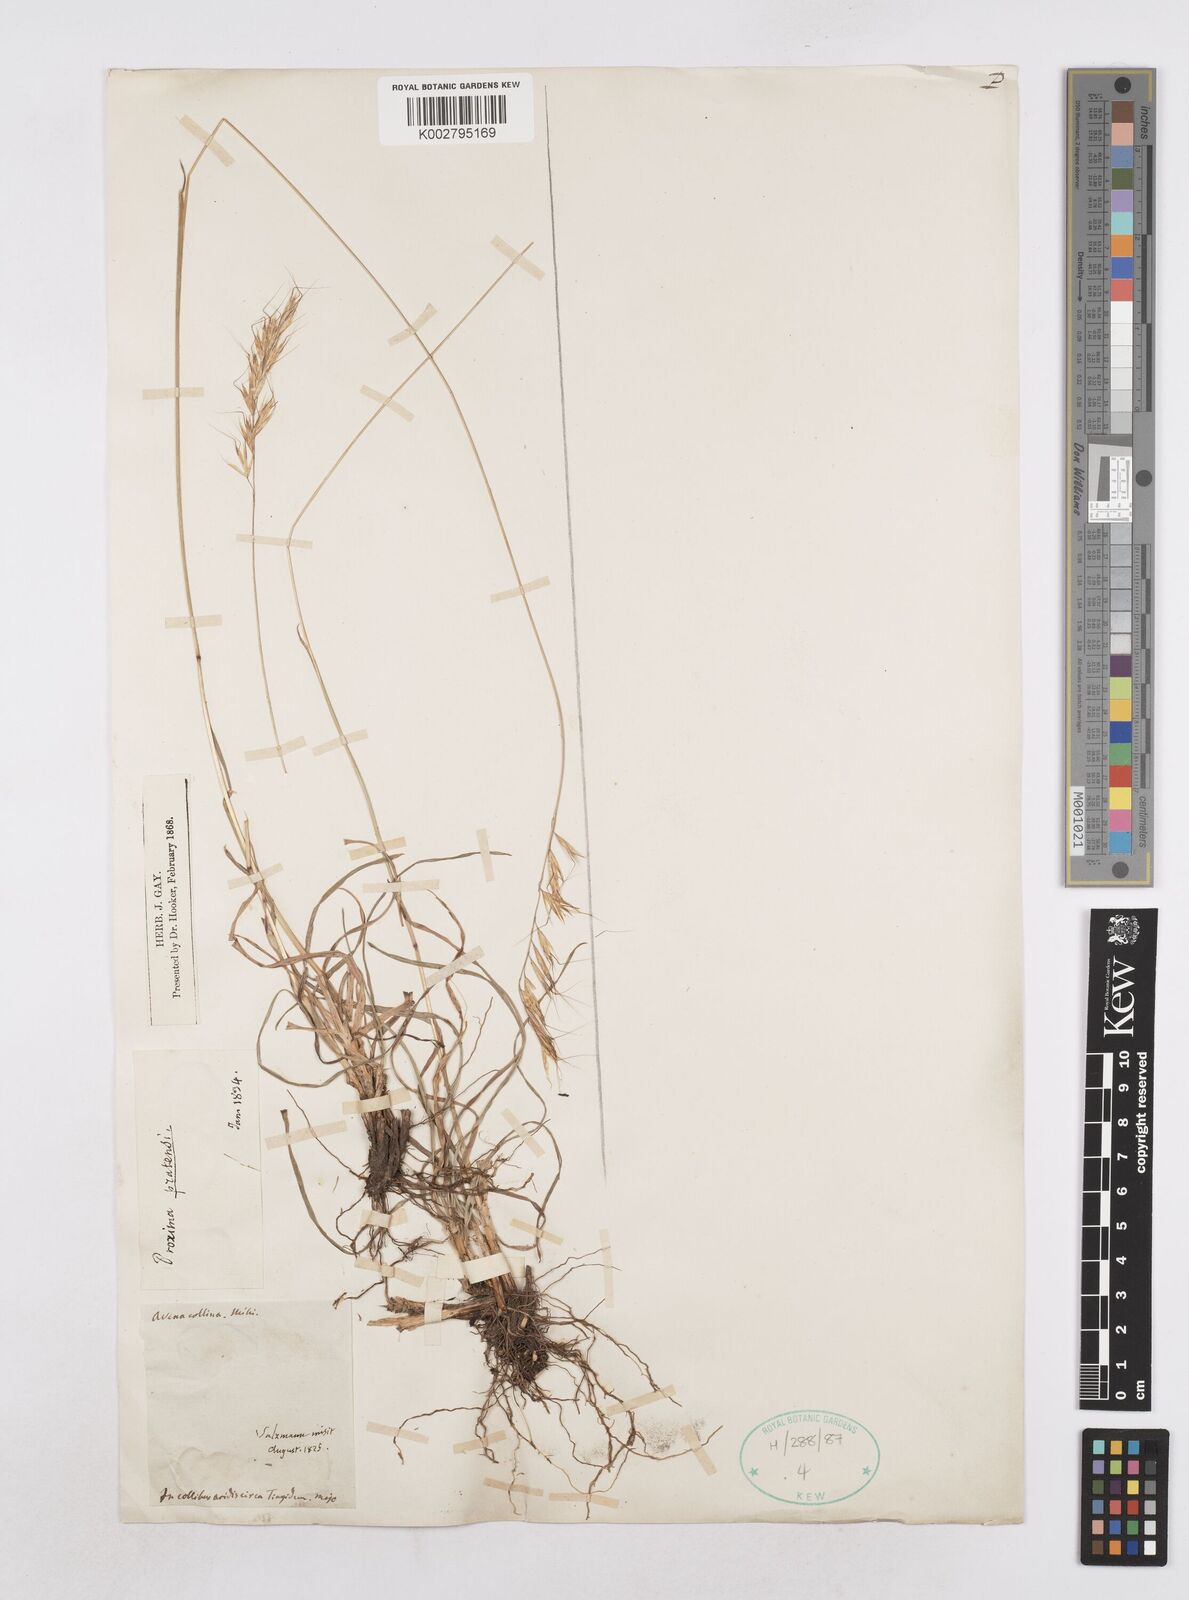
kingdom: Plantae
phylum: Tracheophyta
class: Liliopsida
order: Poales
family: Poaceae
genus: Helictochloa
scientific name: Helictochloa pratensis
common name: Meadow oat grass
